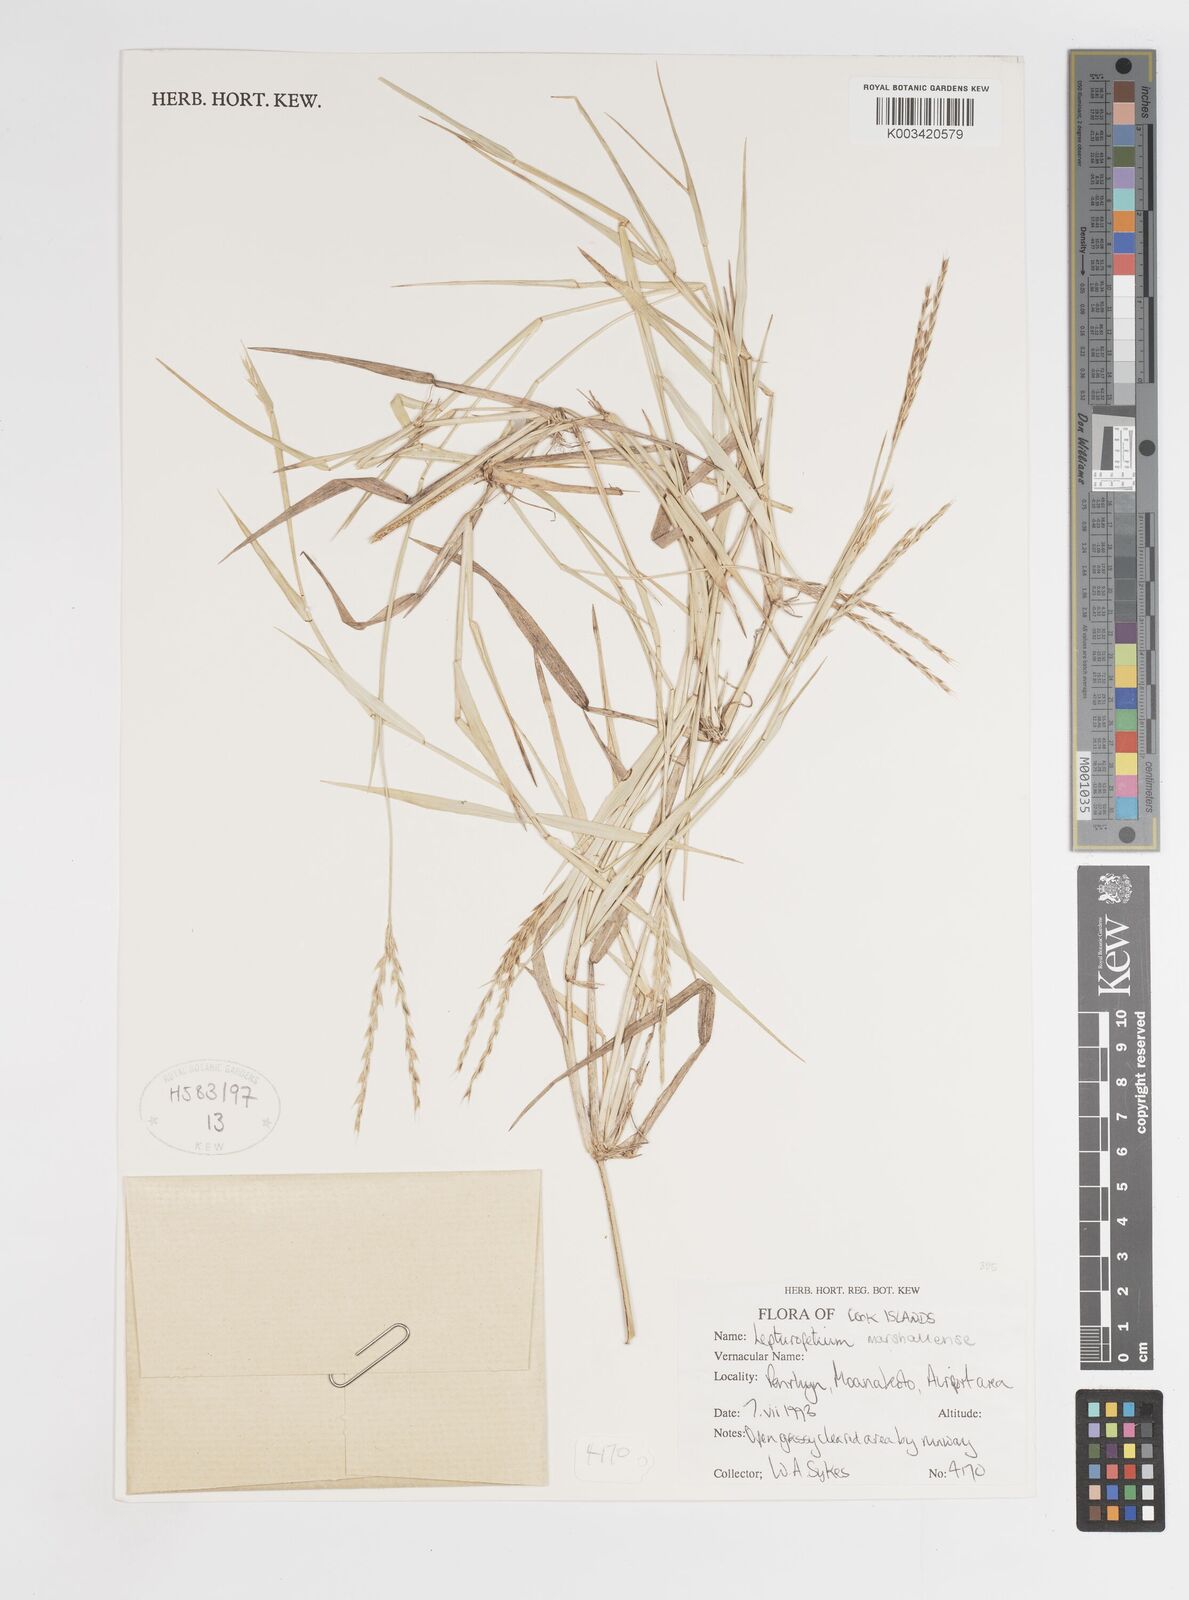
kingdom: Plantae
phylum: Tracheophyta
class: Liliopsida
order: Poales
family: Poaceae
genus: Lepturopetium
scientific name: Lepturopetium marshallense
